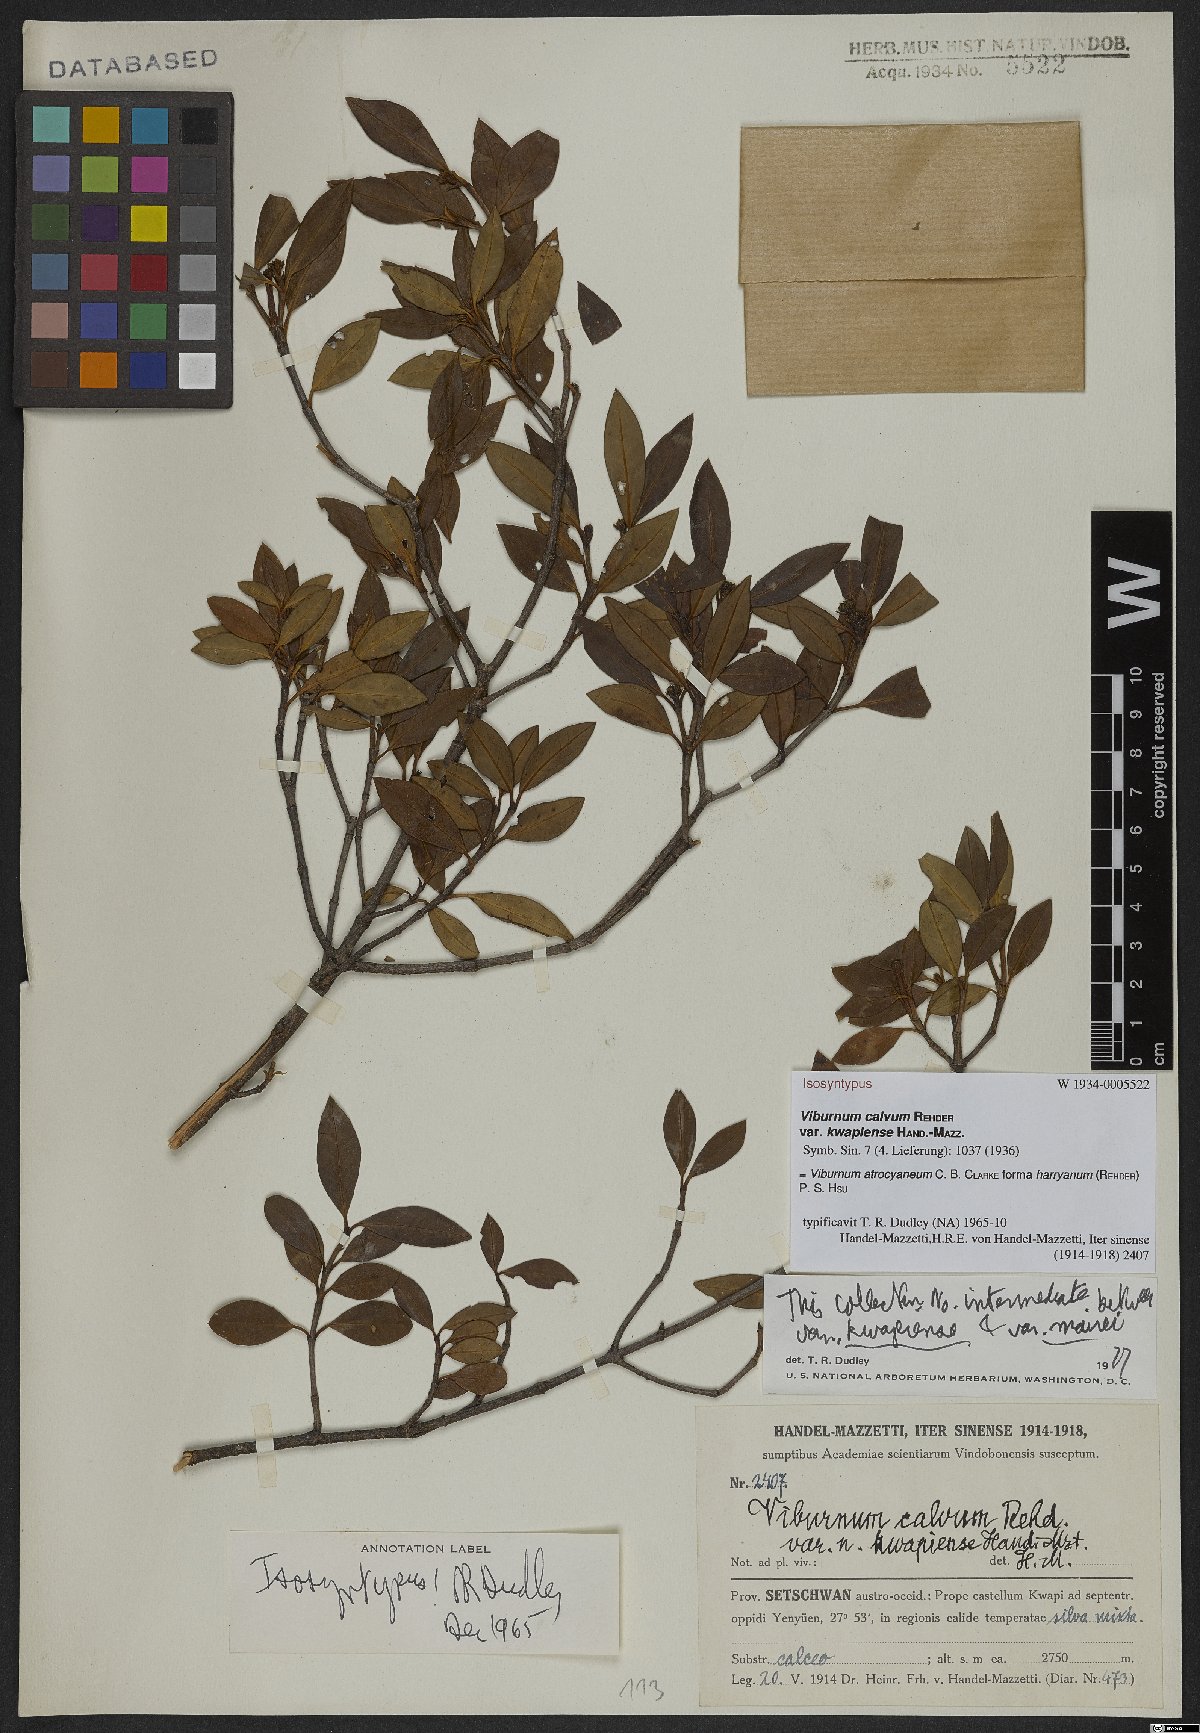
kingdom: Plantae
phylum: Tracheophyta
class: Magnoliopsida
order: Dipsacales
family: Viburnaceae
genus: Viburnum
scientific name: Viburnum atrocyaneum
